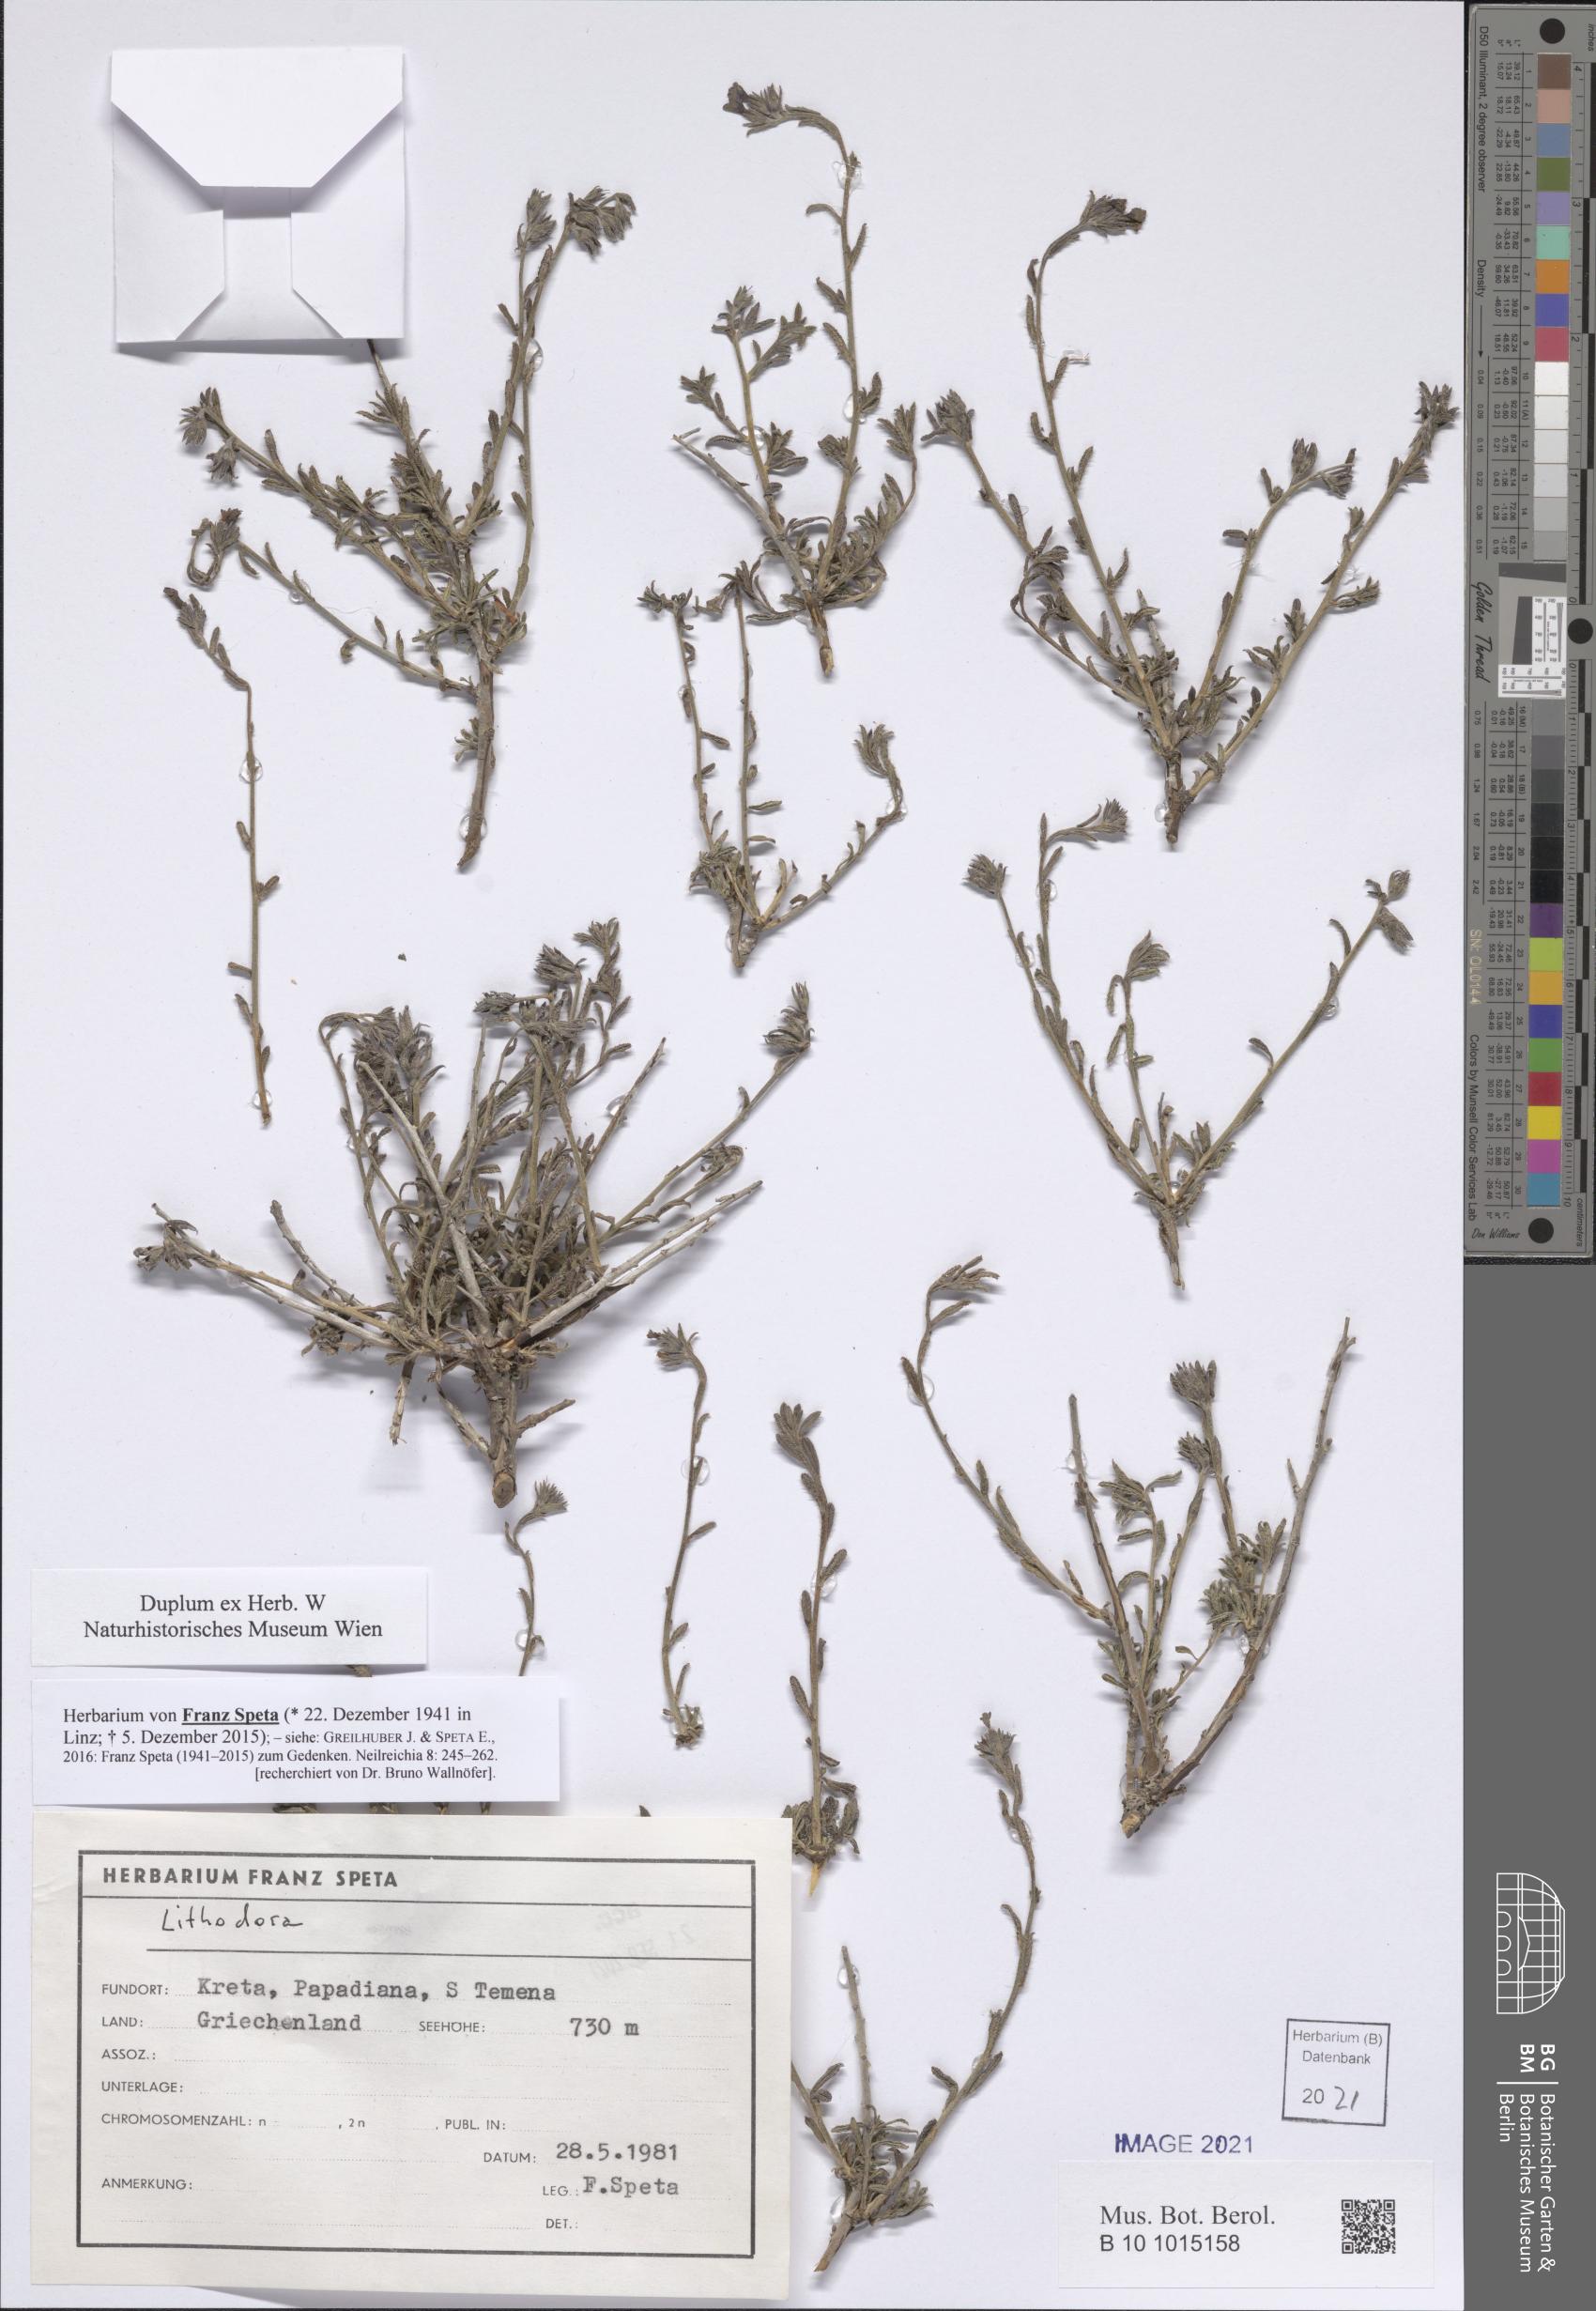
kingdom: Plantae
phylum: Tracheophyta
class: Magnoliopsida
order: Boraginales
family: Boraginaceae
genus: Lithodora
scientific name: Lithodora
